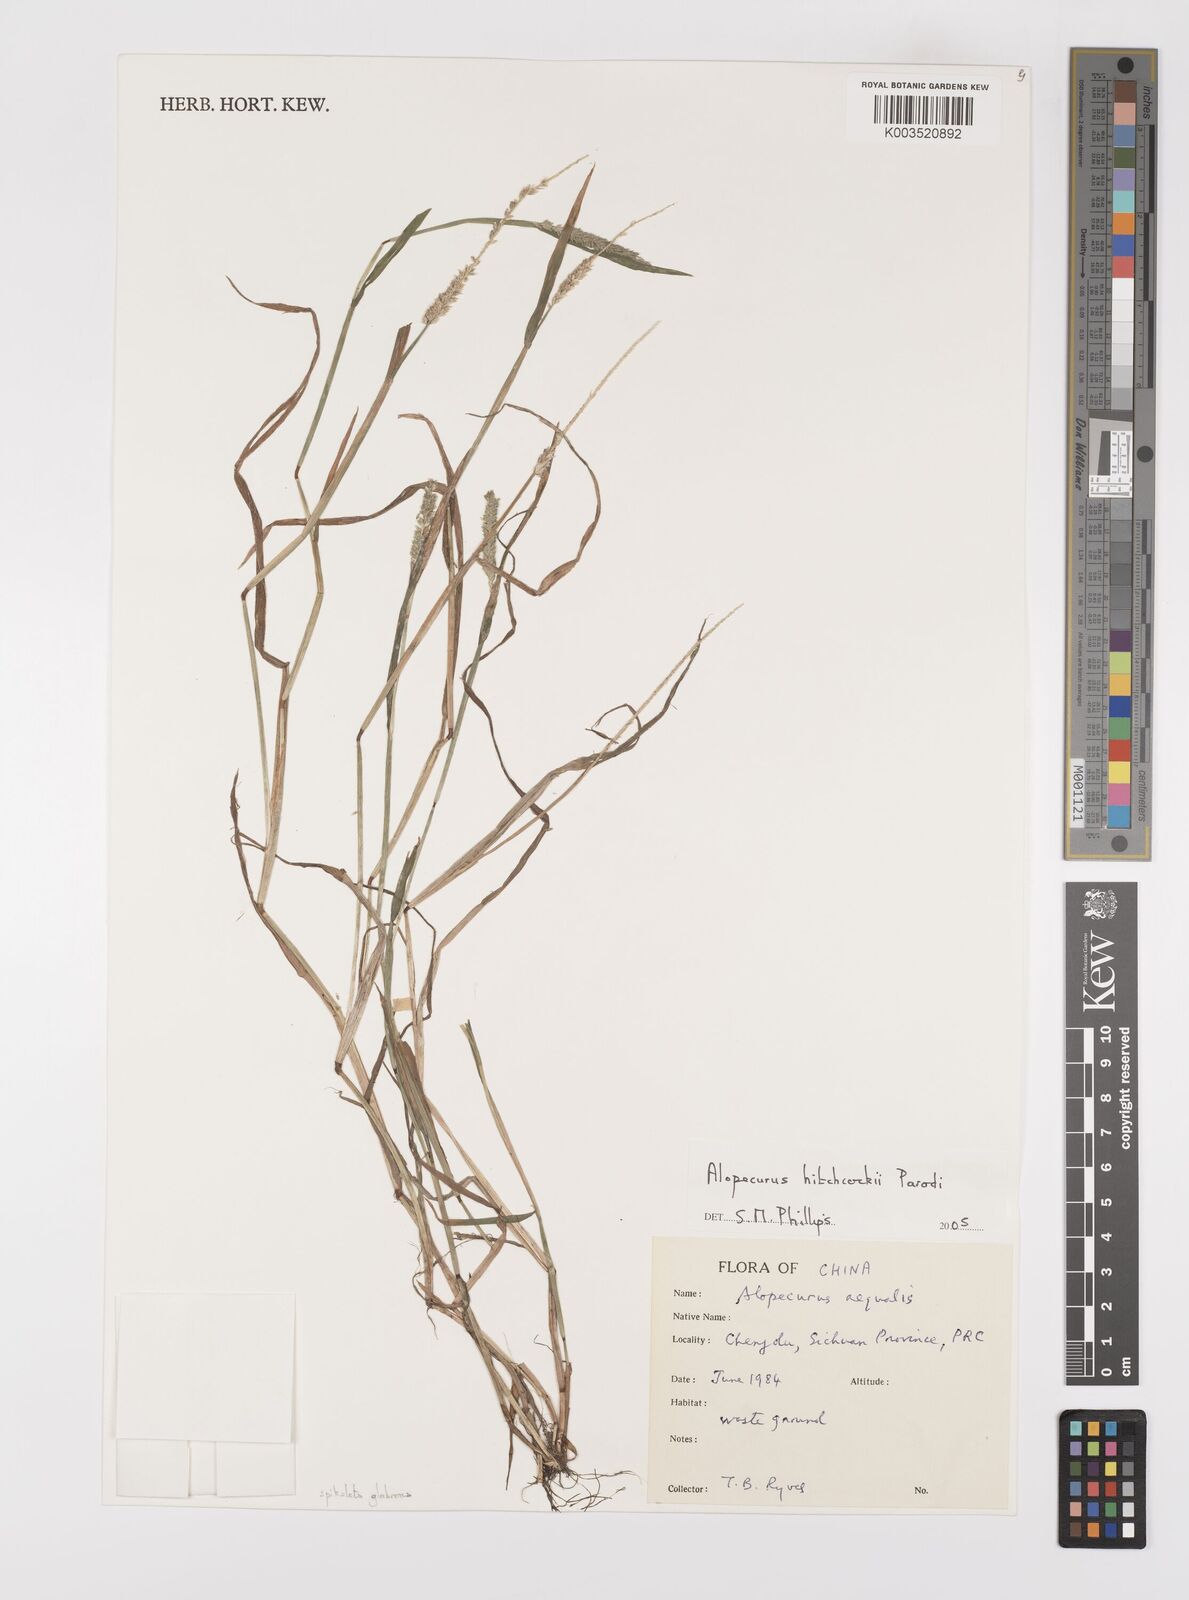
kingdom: Plantae
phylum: Tracheophyta
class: Liliopsida
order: Poales
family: Poaceae
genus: Alopecurus
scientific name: Alopecurus hitchcockii
